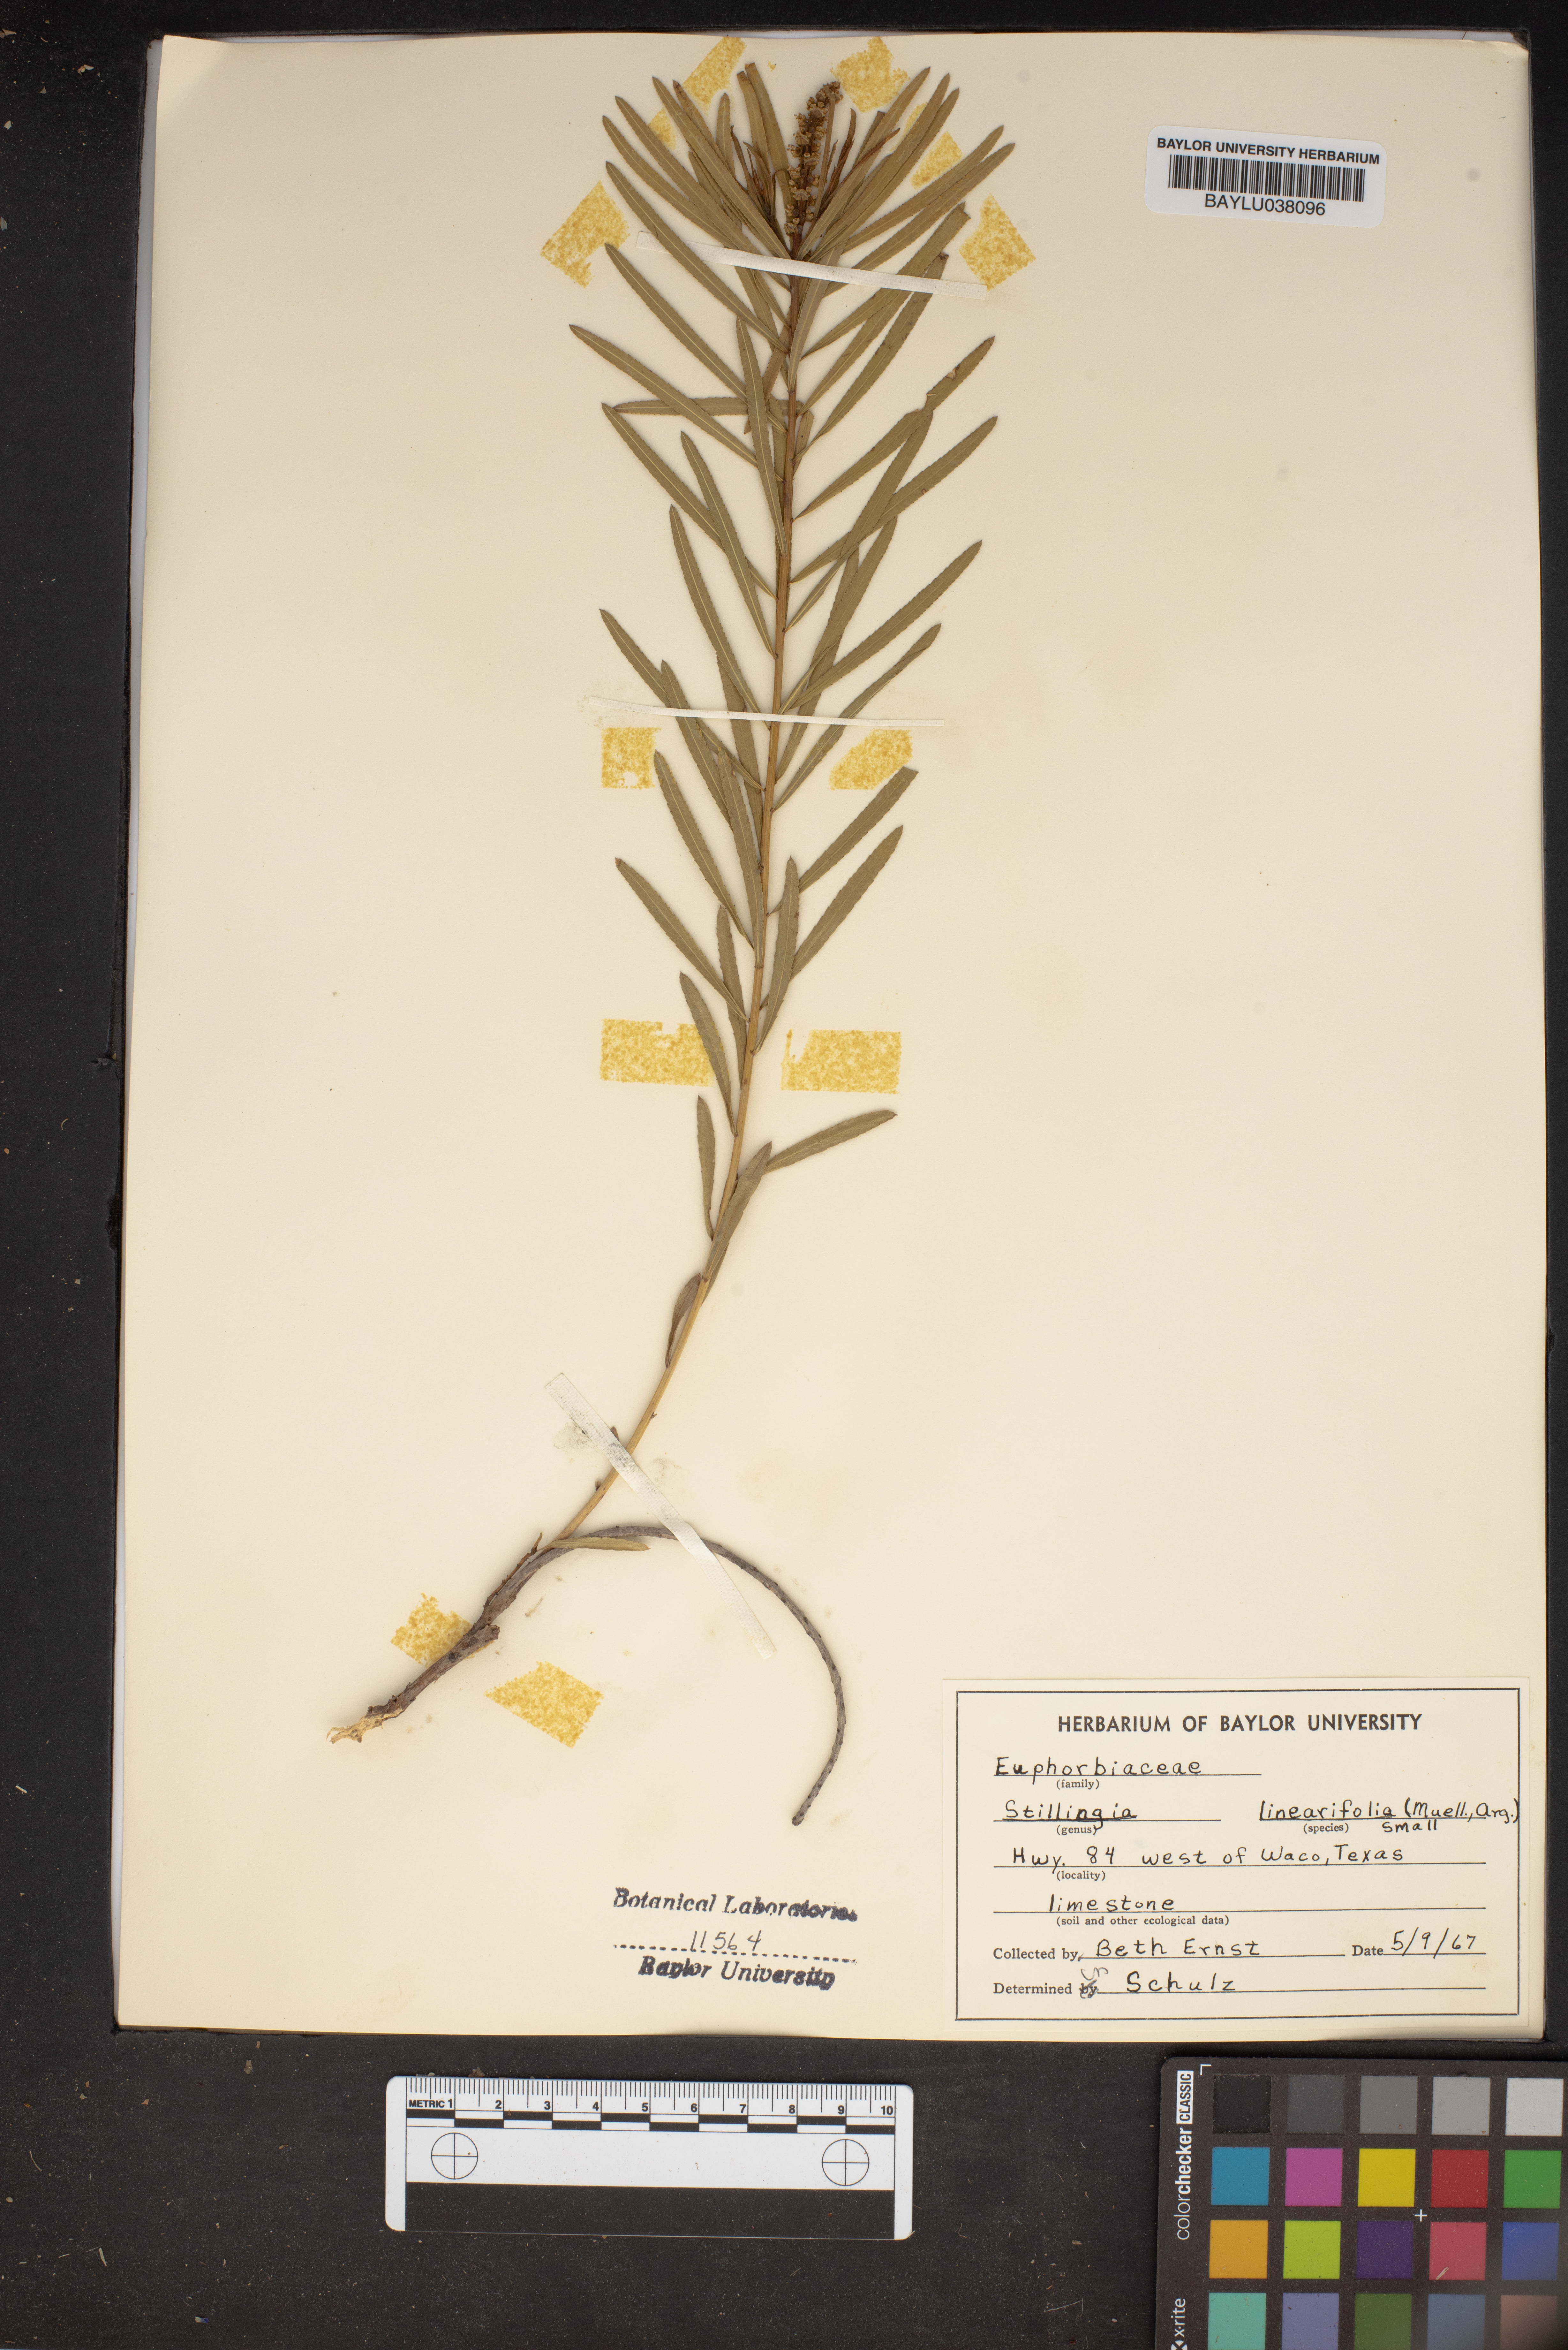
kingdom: Plantae
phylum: Tracheophyta
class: Magnoliopsida
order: Malpighiales
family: Euphorbiaceae
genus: Stillingia
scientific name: Stillingia linearifolia
